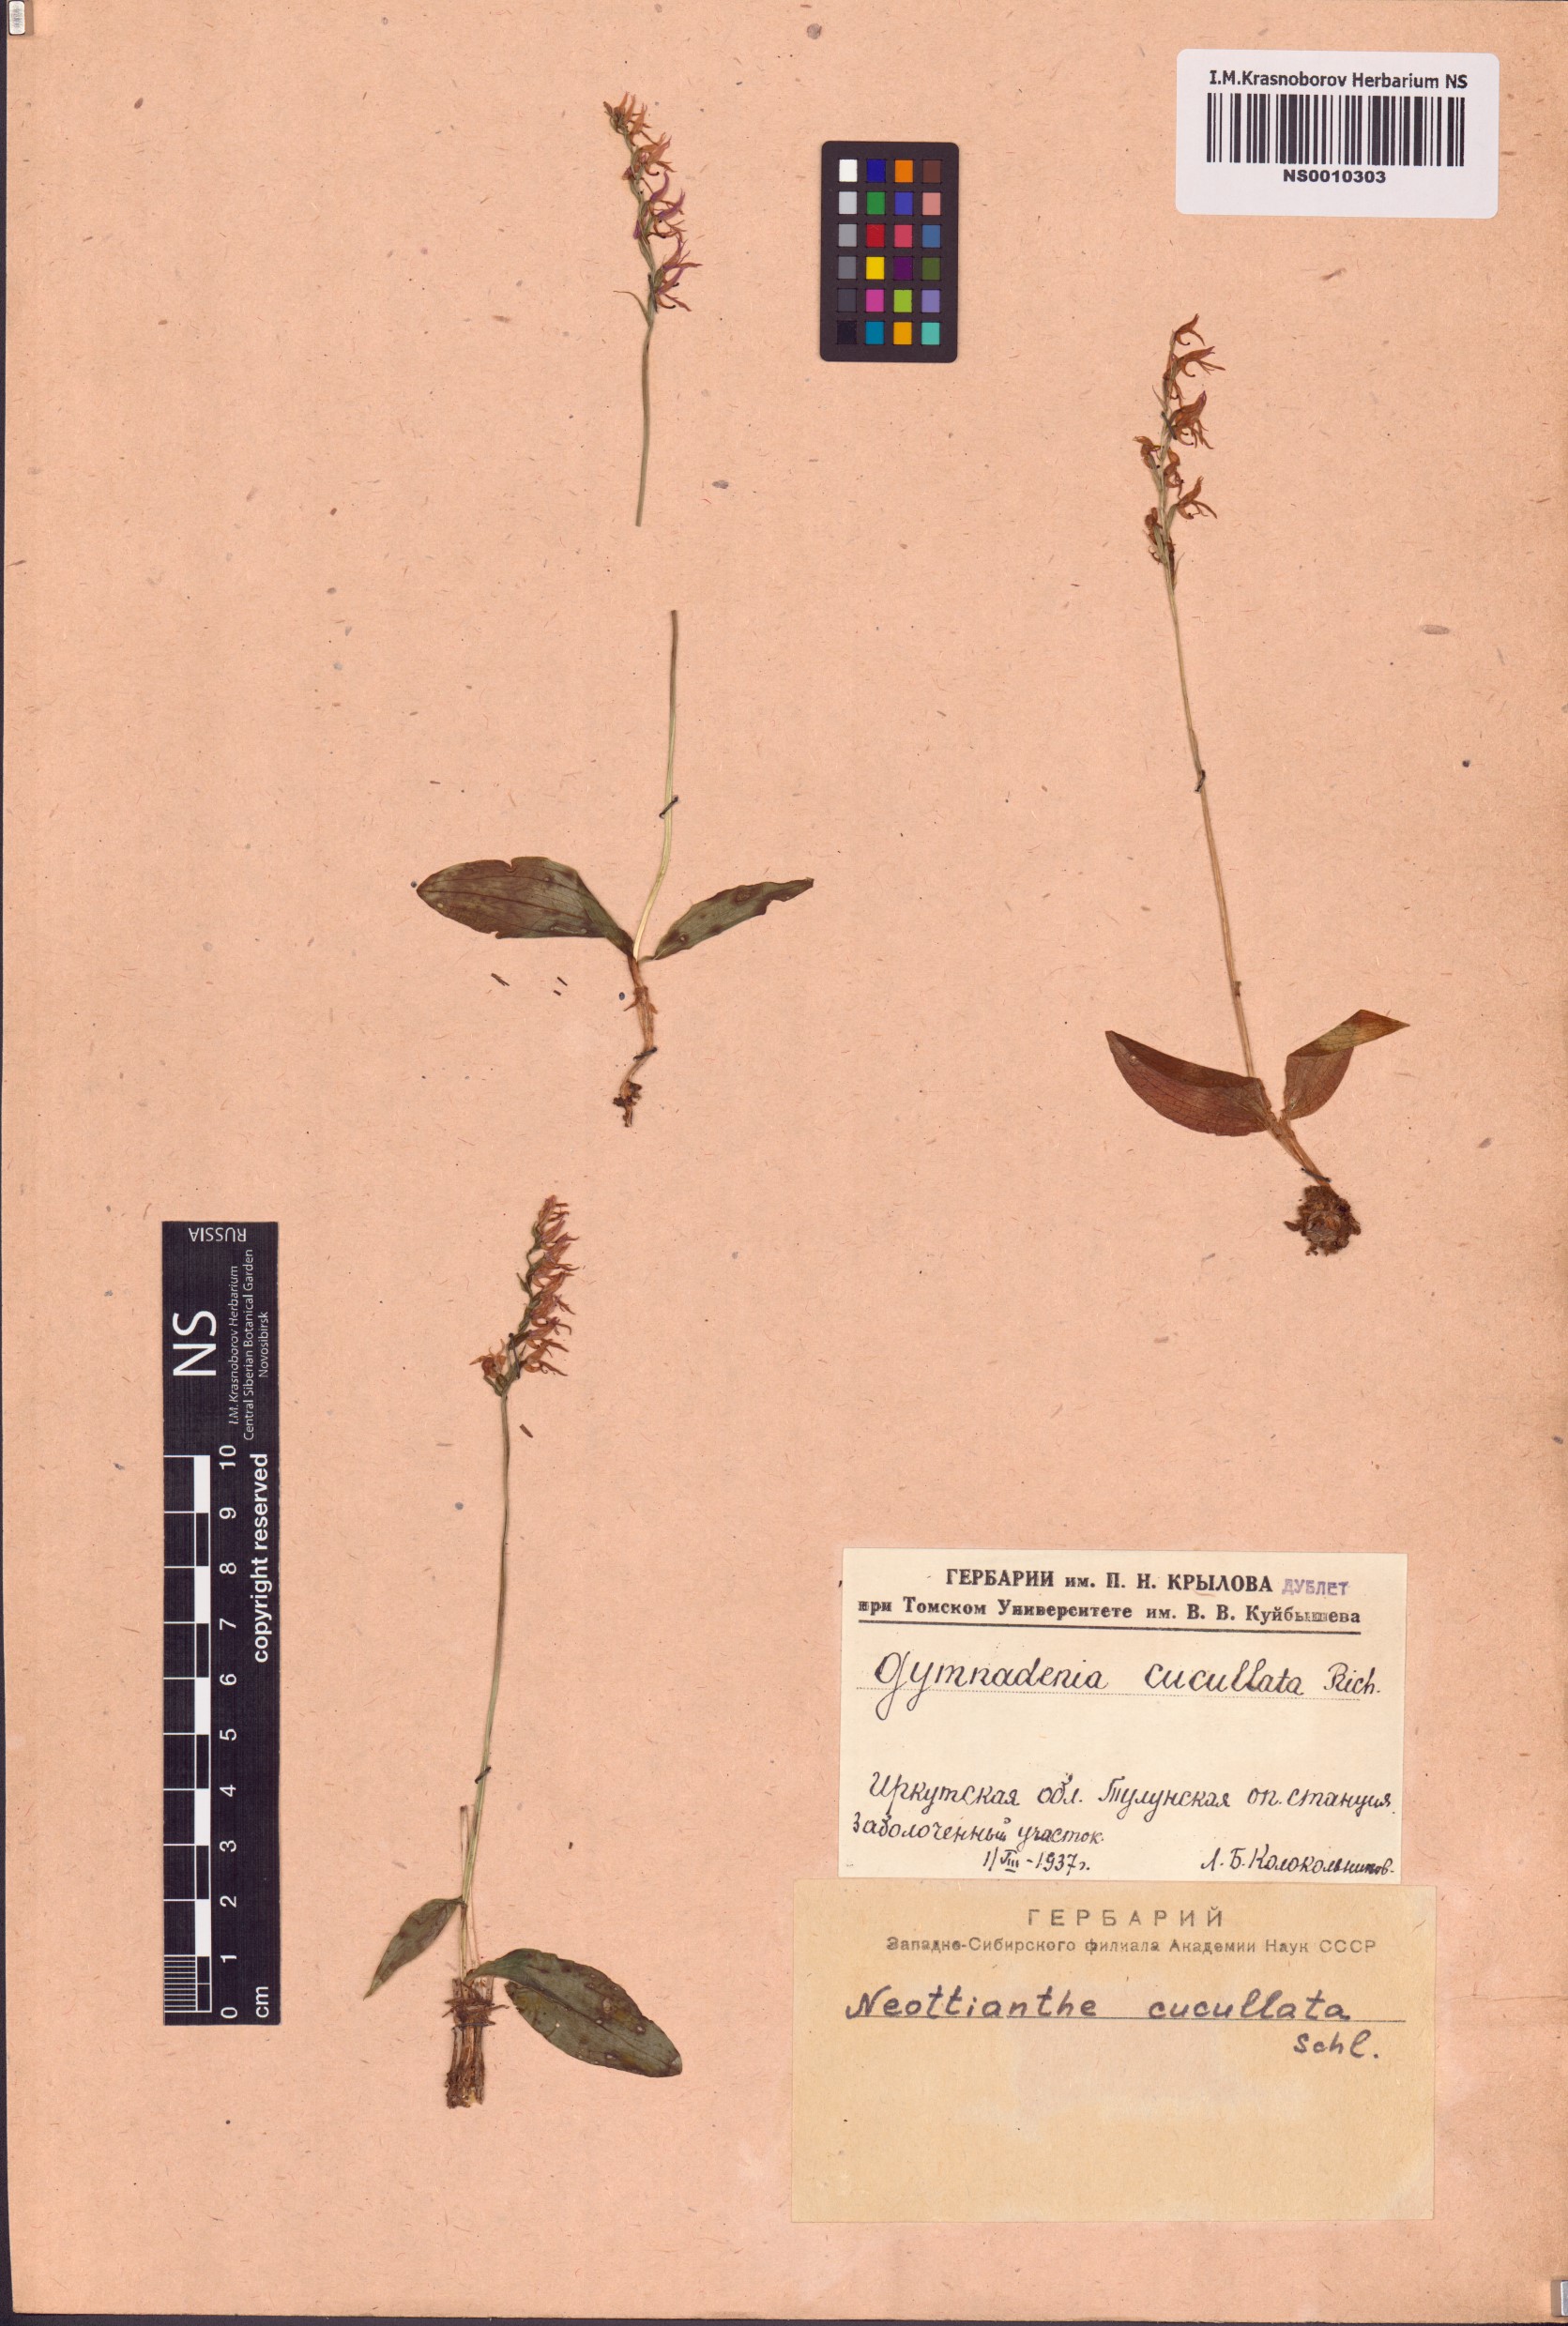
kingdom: Plantae
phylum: Tracheophyta
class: Liliopsida
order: Asparagales
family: Orchidaceae
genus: Hemipilia
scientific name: Hemipilia cucullata
